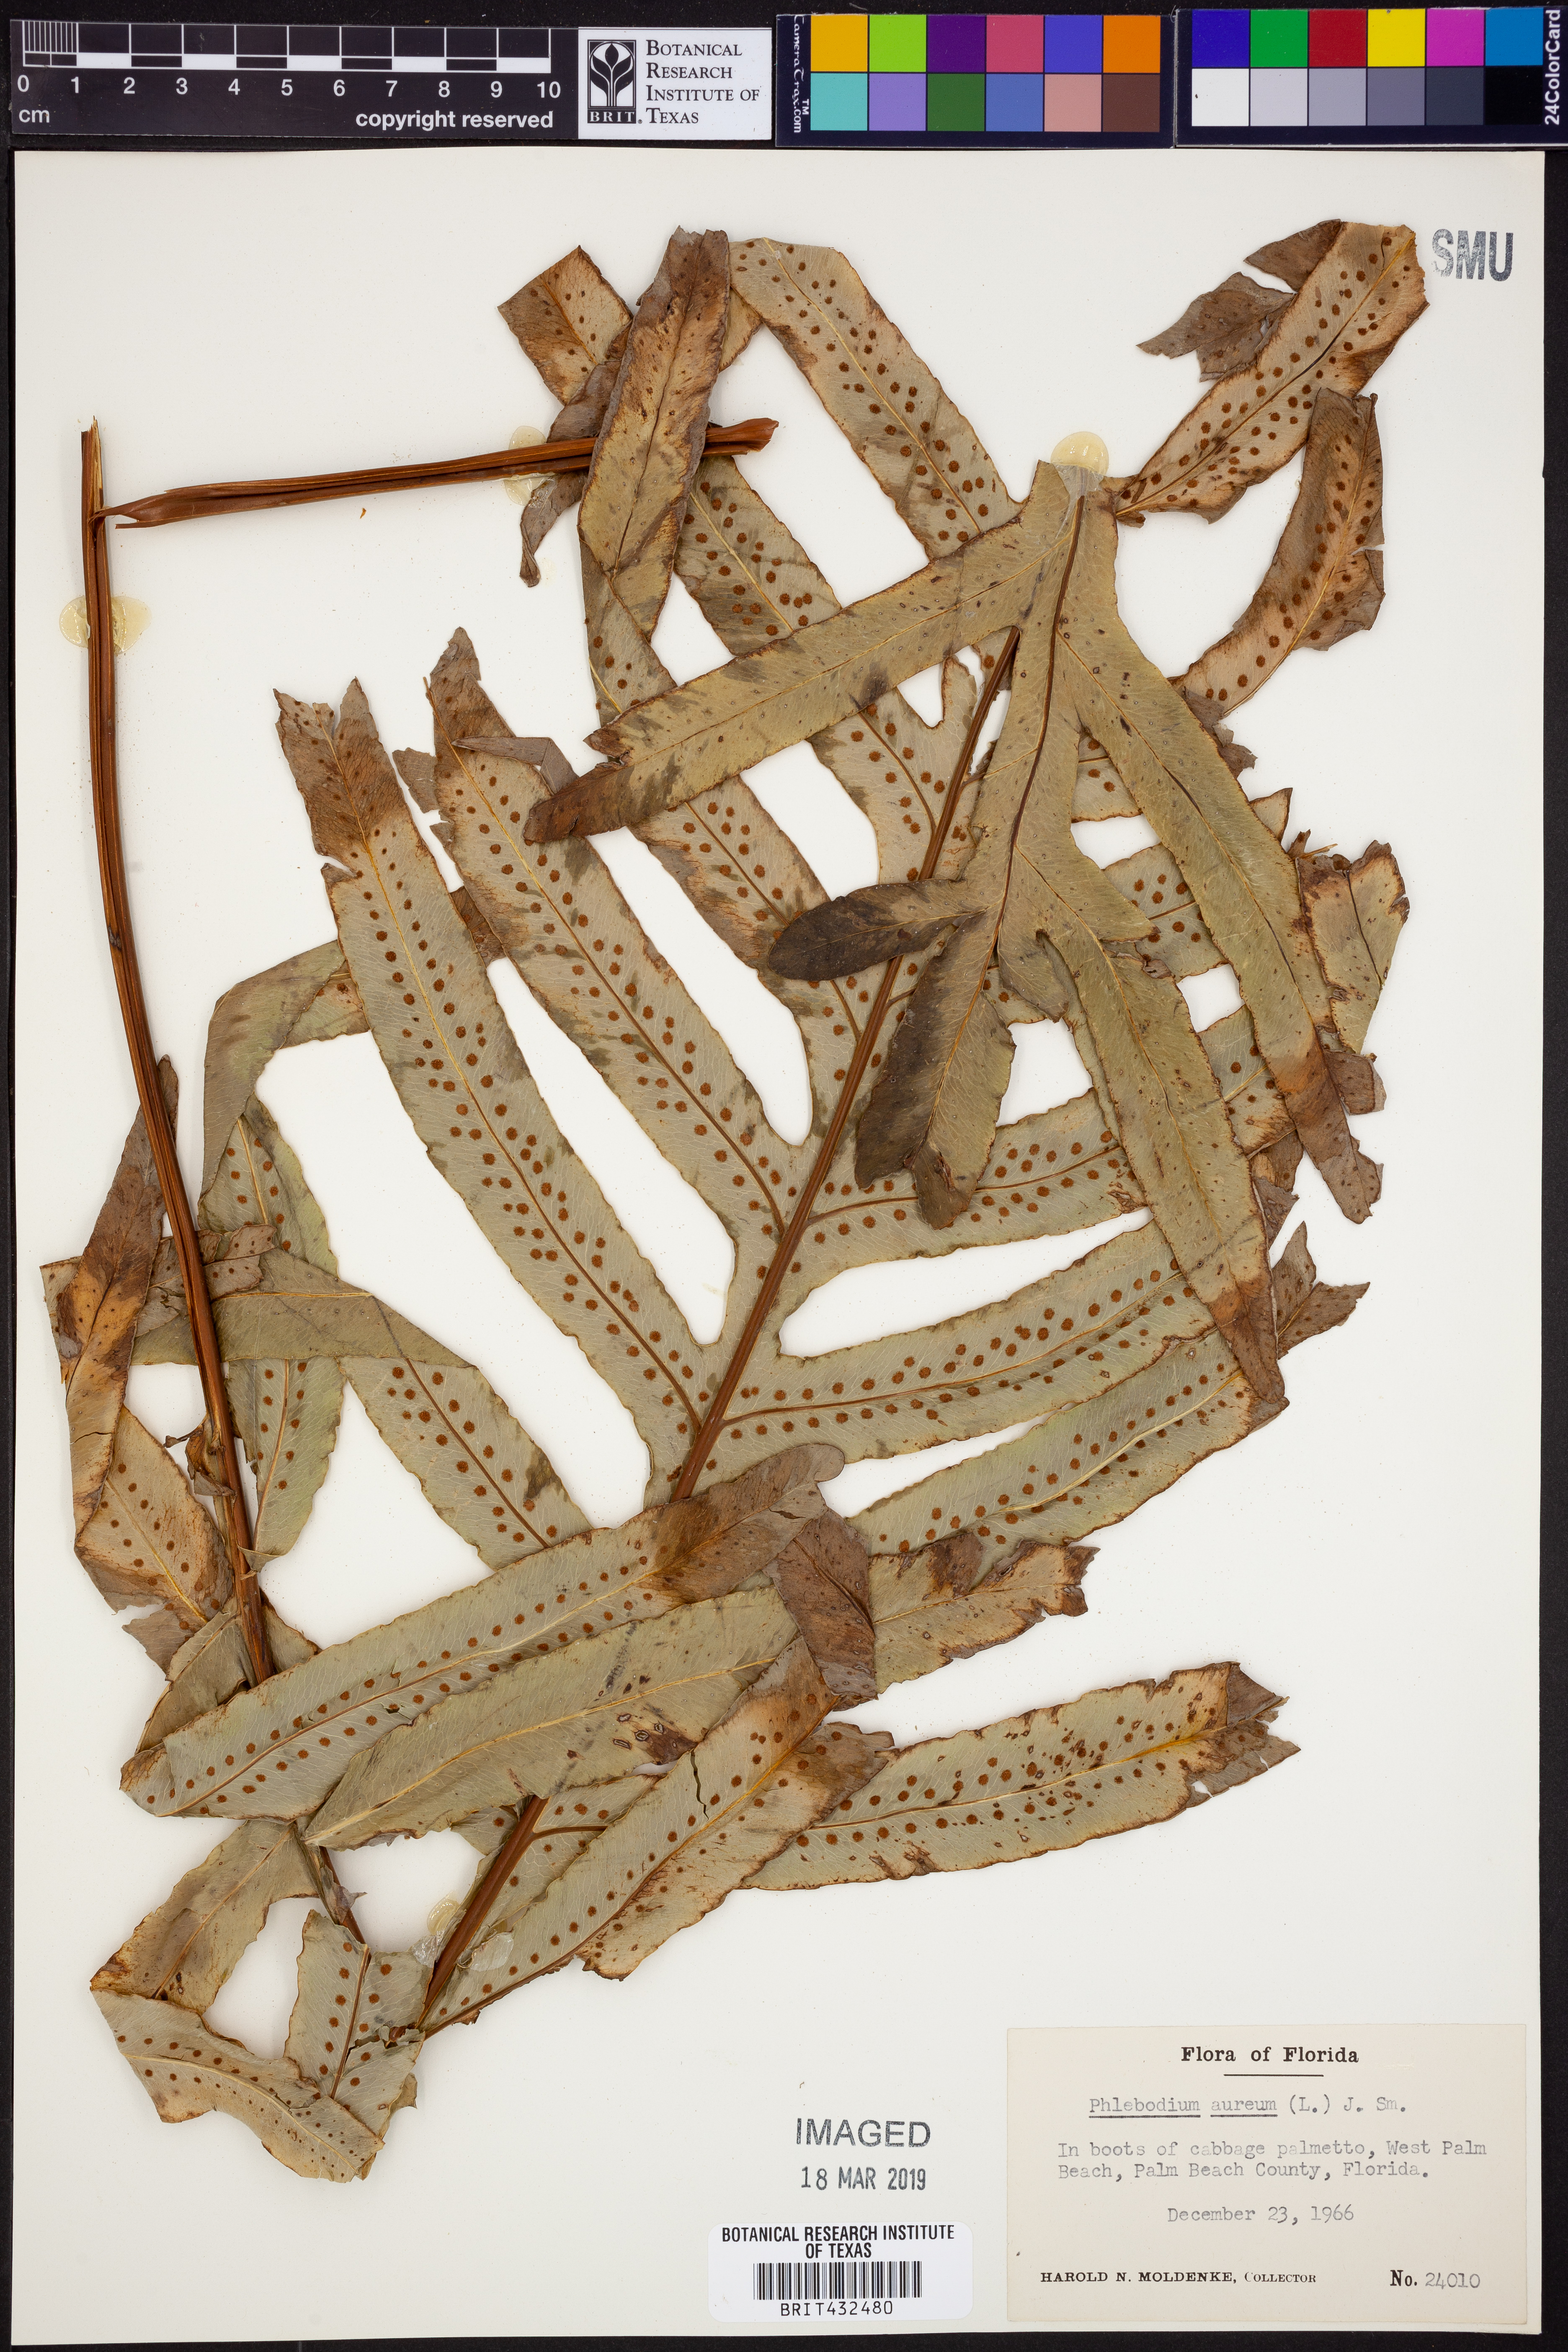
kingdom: Plantae
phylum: Tracheophyta
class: Polypodiopsida
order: Polypodiales
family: Polypodiaceae
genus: Phlebodium
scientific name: Phlebodium aureum
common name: Gold-foot fern
